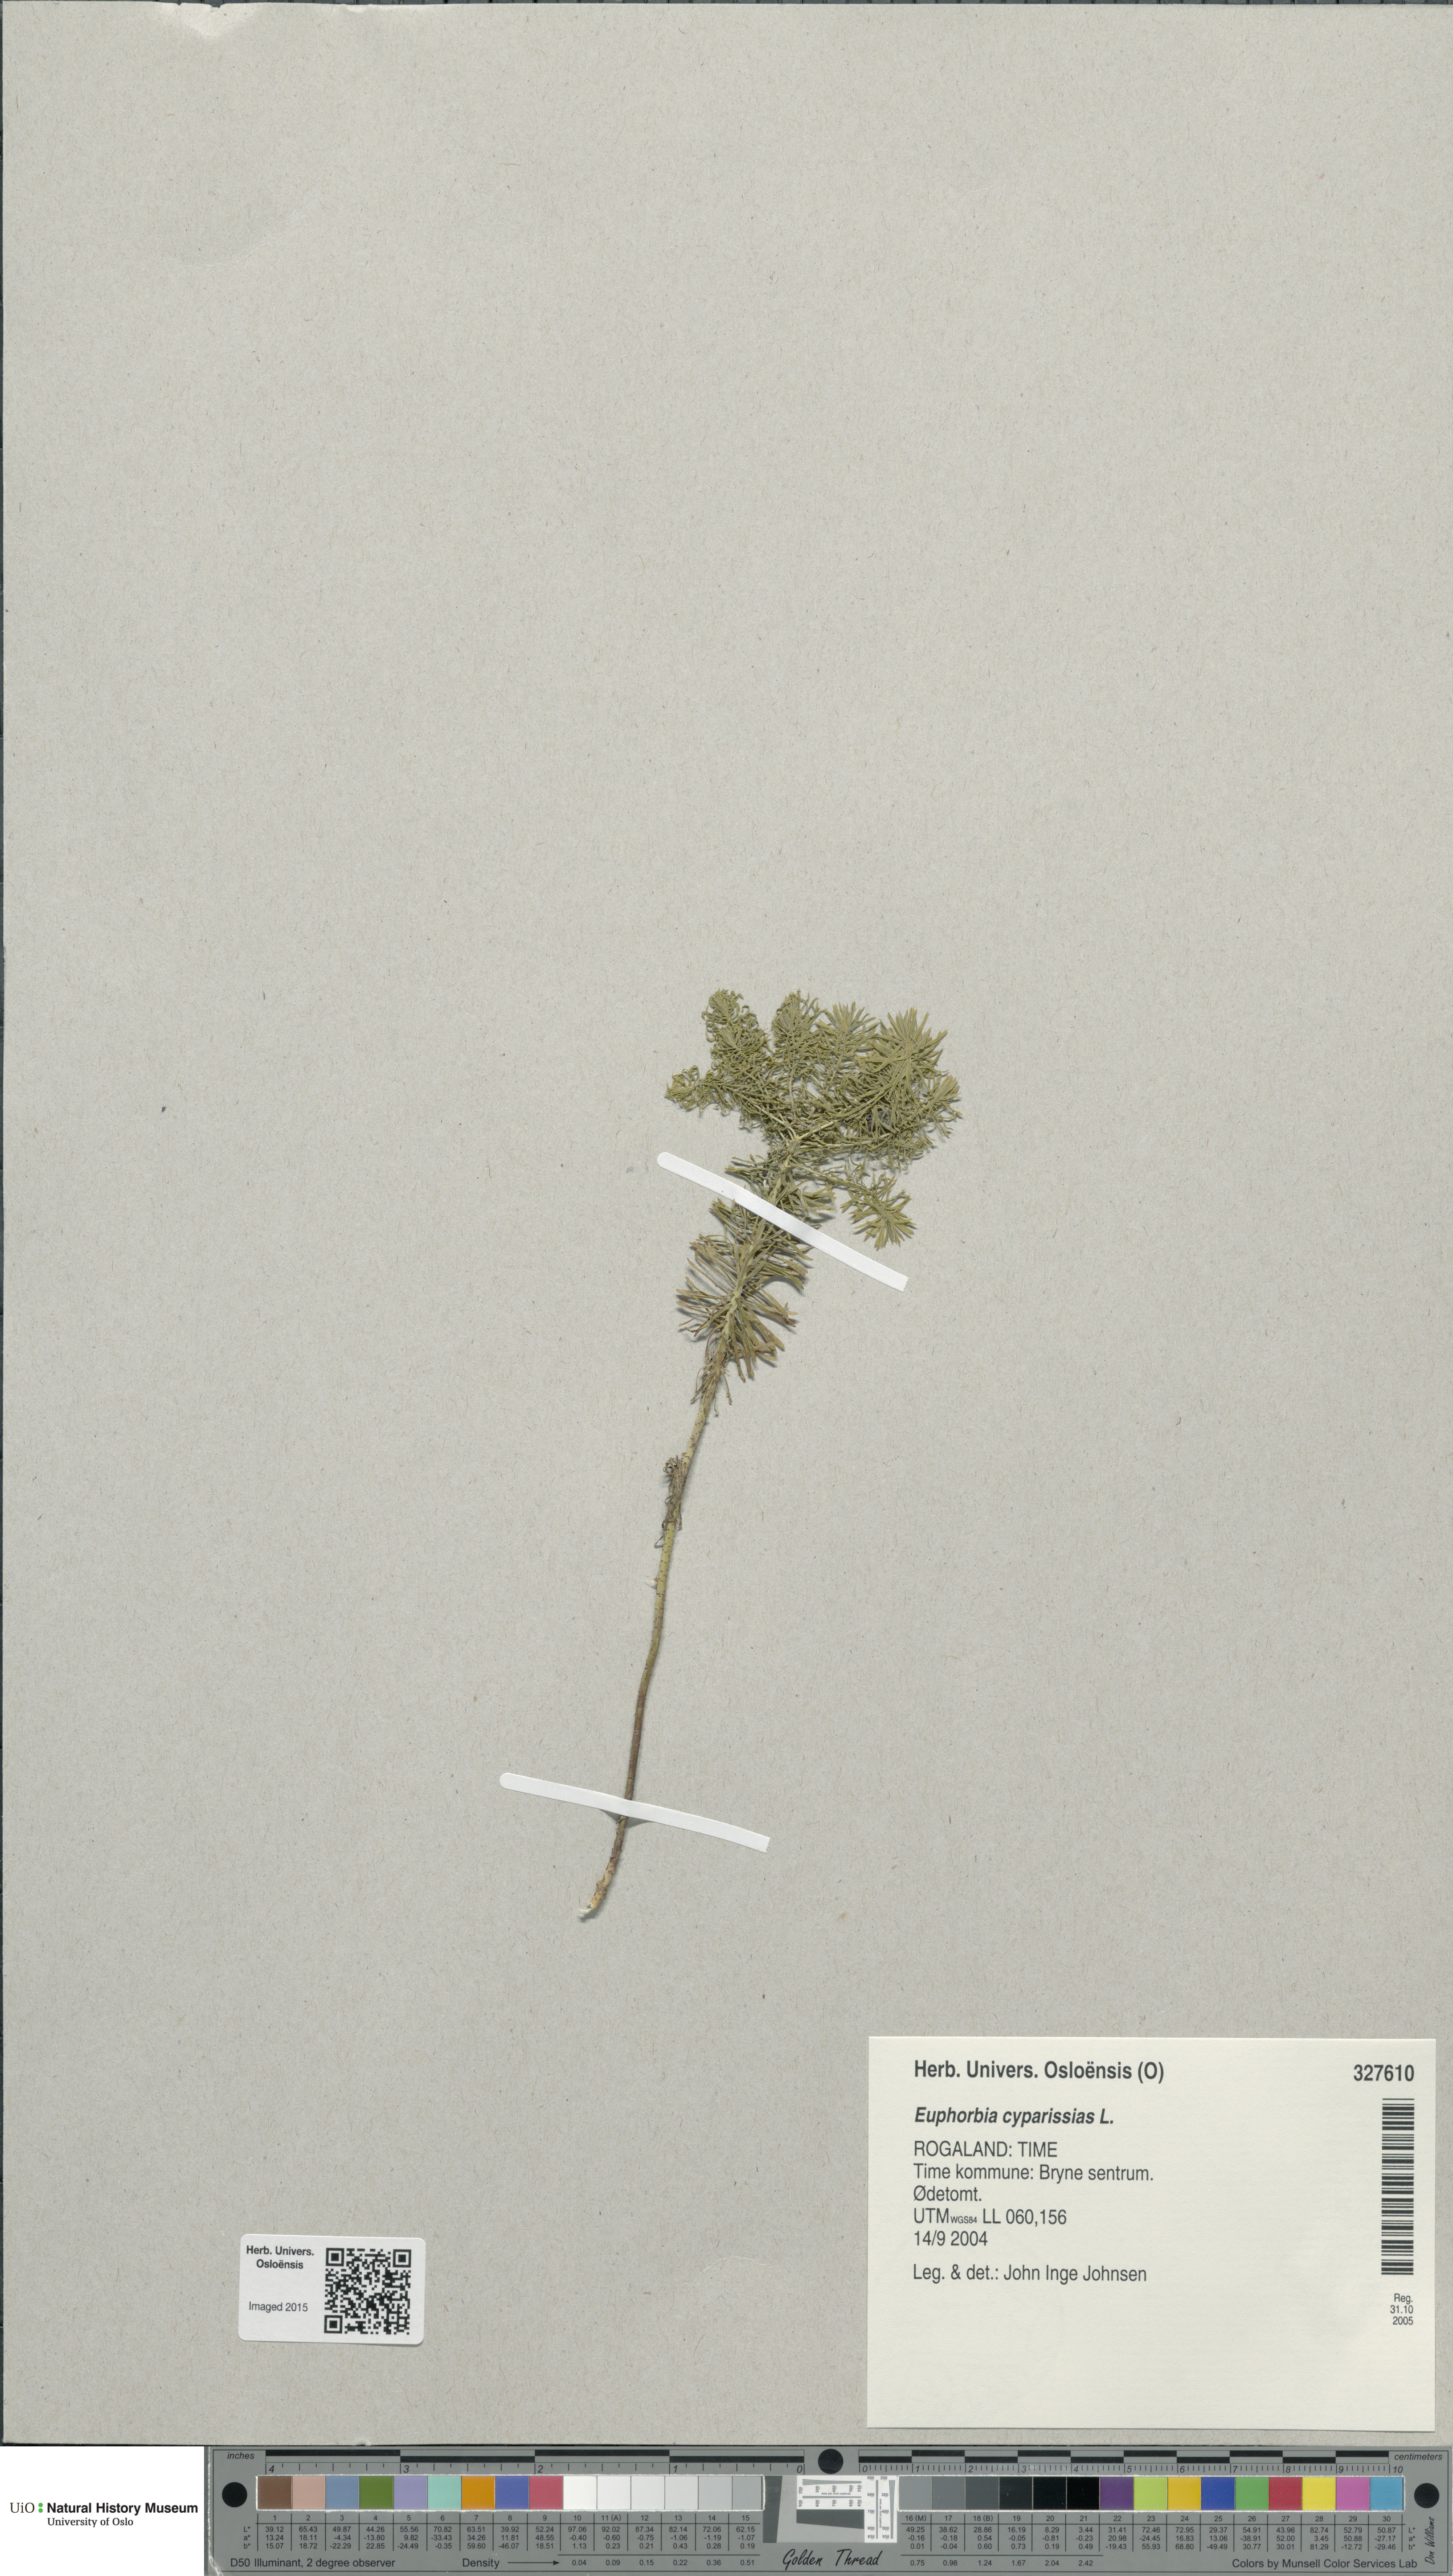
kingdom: Plantae
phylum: Tracheophyta
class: Magnoliopsida
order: Malpighiales
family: Euphorbiaceae
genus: Euphorbia
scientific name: Euphorbia cyparissias
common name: Cypress spurge
